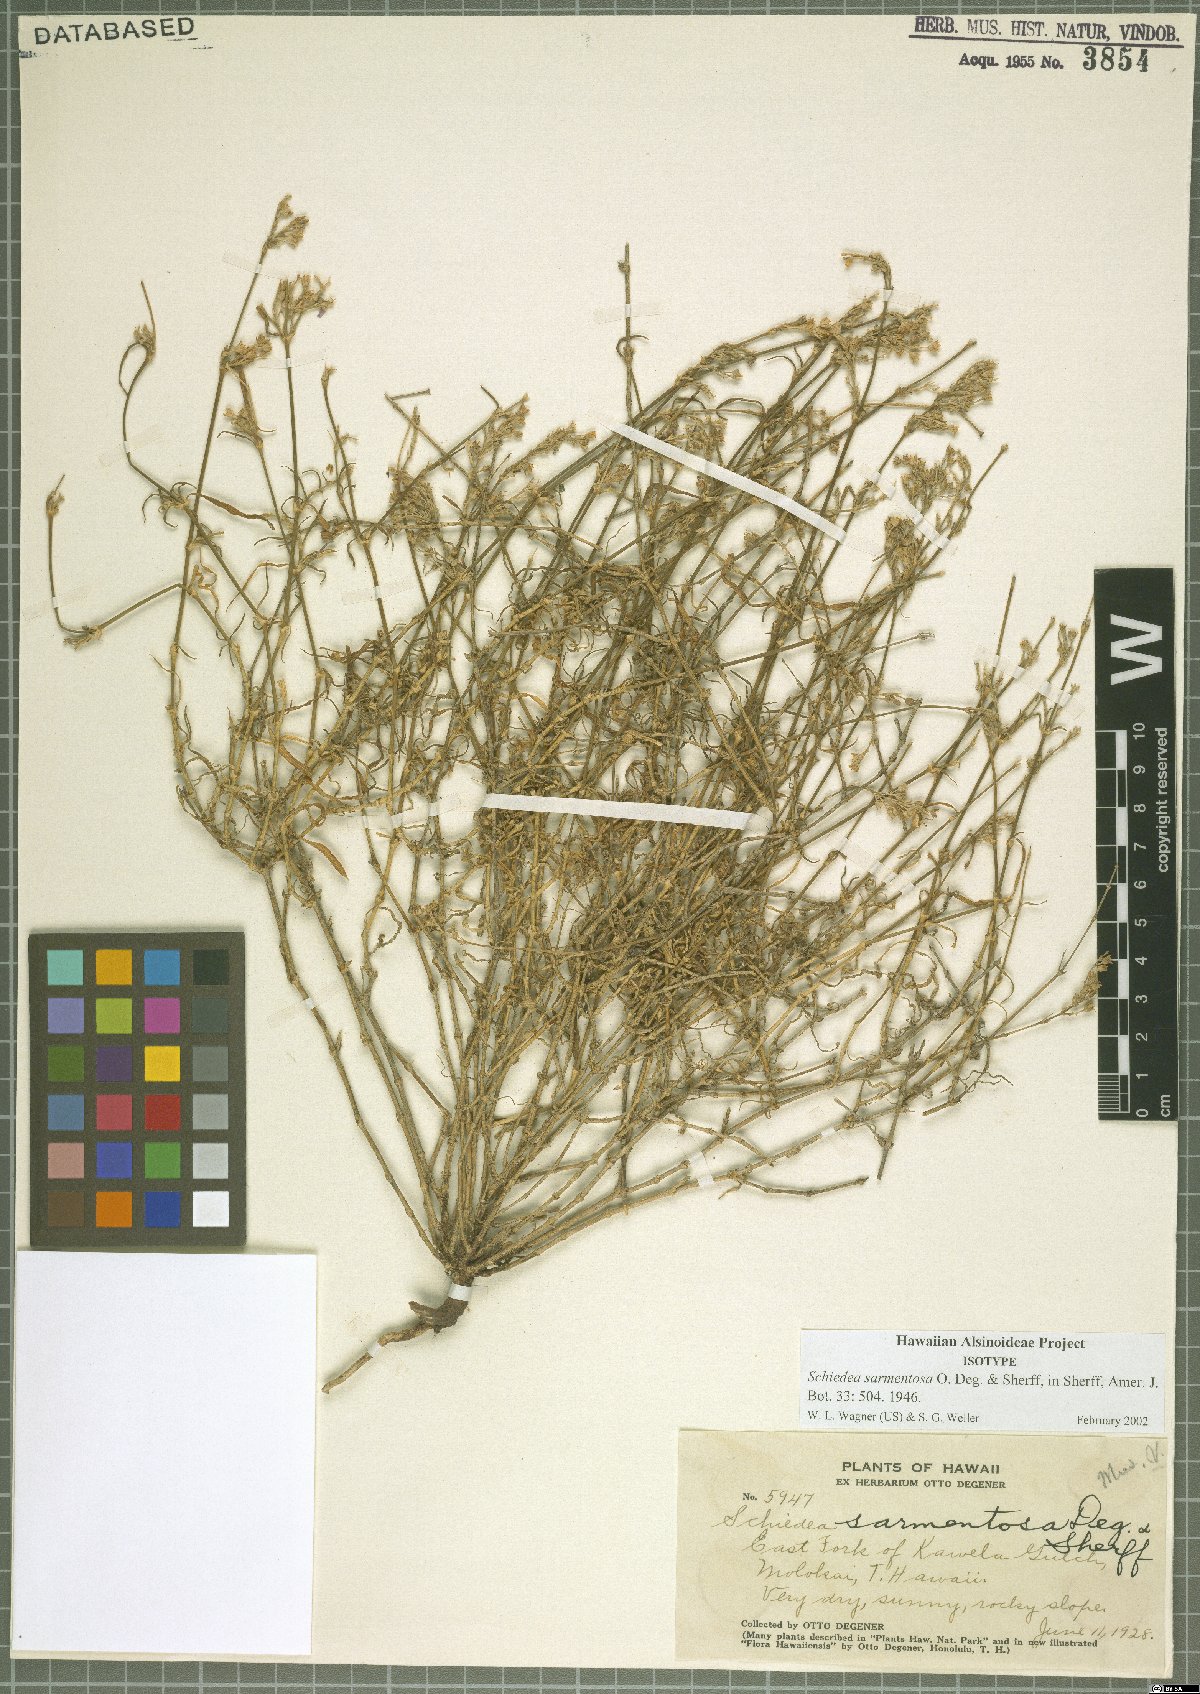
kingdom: Plantae
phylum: Tracheophyta
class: Magnoliopsida
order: Caryophyllales
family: Caryophyllaceae
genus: Schiedea
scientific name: Schiedea sarmentosa
